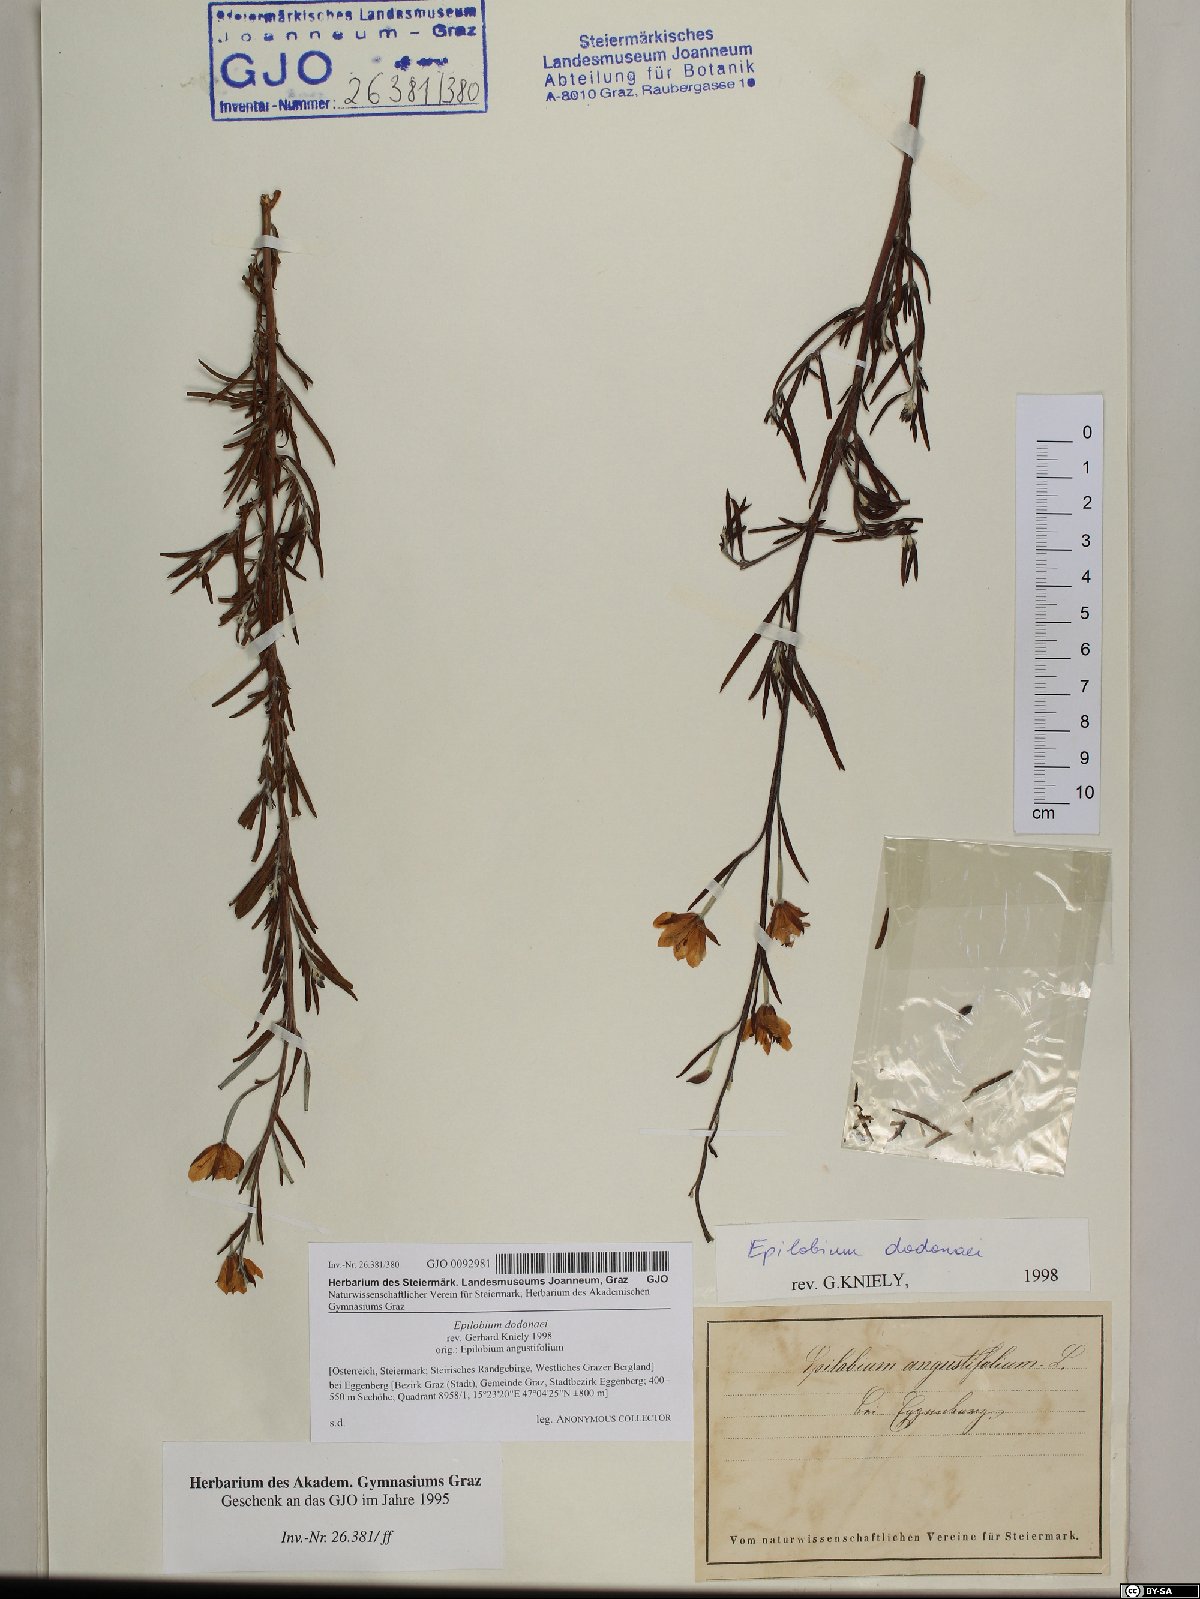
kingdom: Plantae
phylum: Tracheophyta
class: Magnoliopsida
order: Myrtales
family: Onagraceae
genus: Chamaenerion
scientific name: Chamaenerion dodonaei
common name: Rosemary-leaved willowherb
